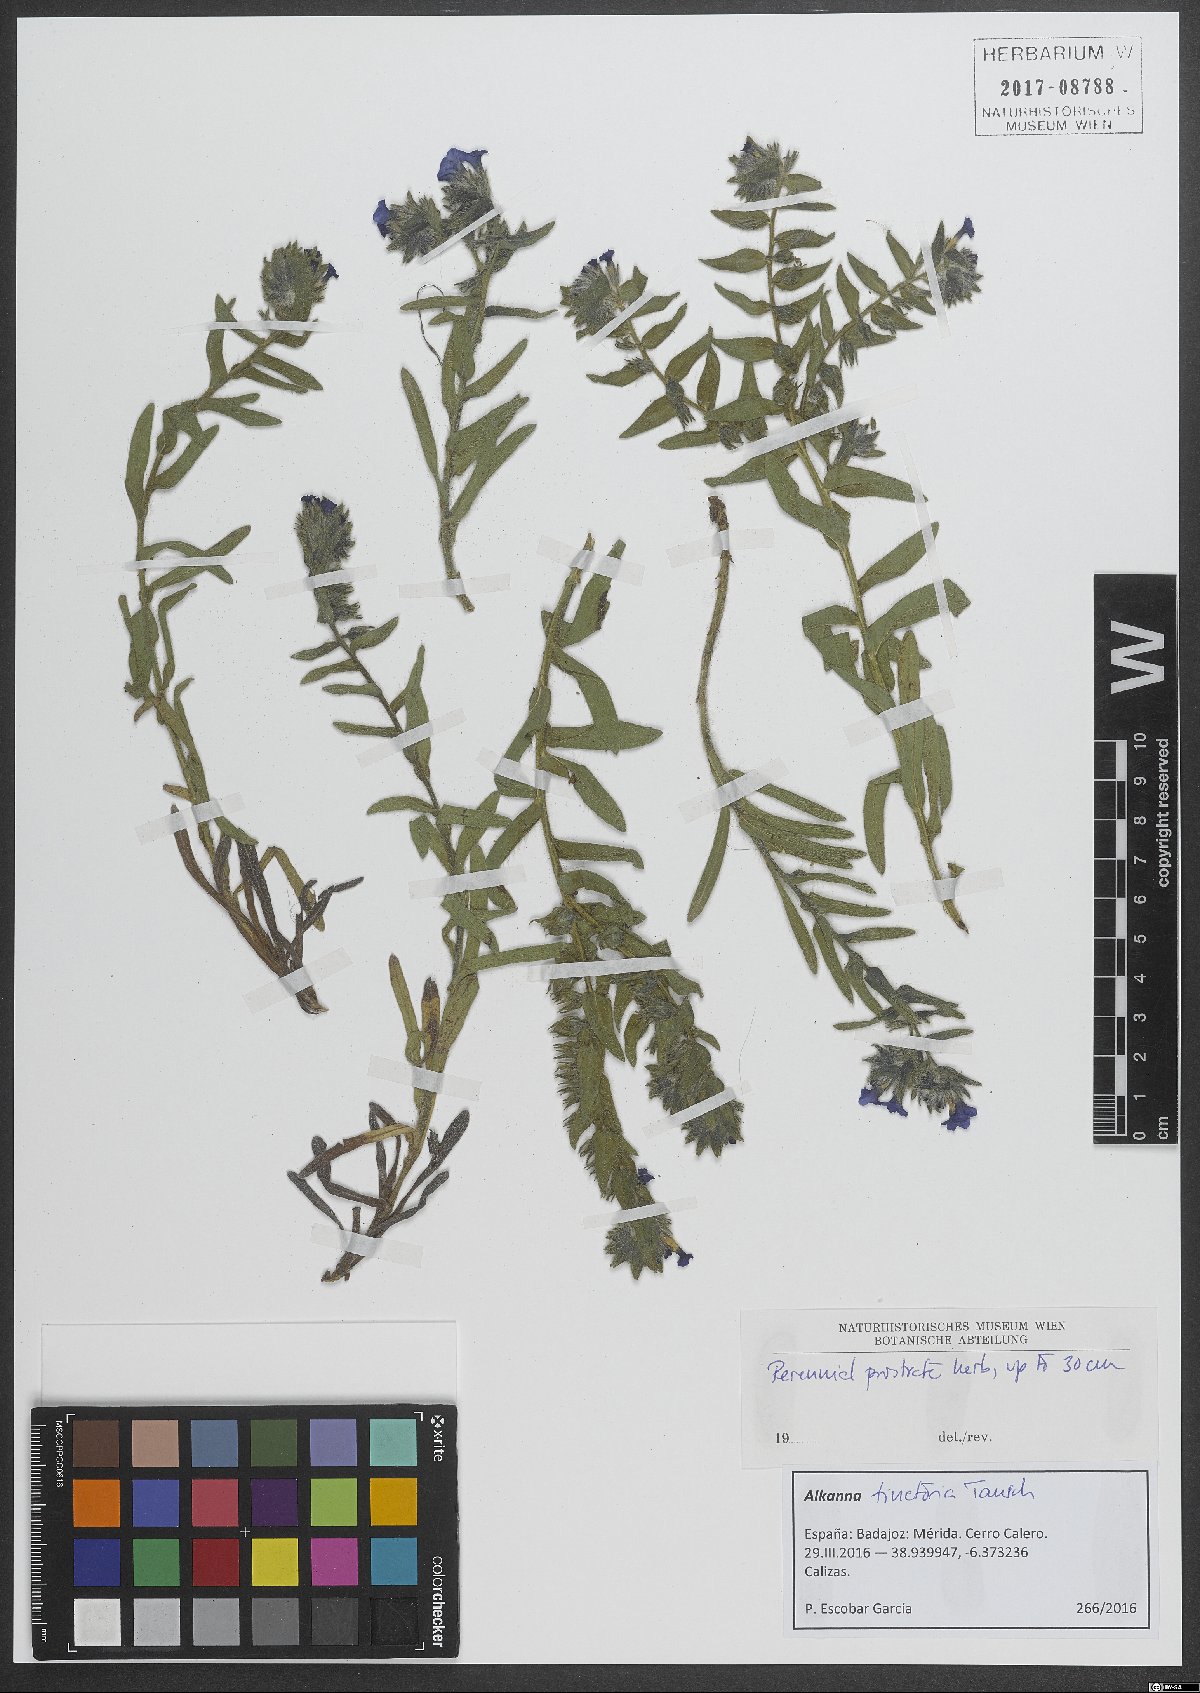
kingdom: Plantae
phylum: Tracheophyta
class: Magnoliopsida
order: Boraginales
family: Boraginaceae
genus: Alkanna
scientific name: Alkanna tinctoria
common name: Dyer's-alkanet
